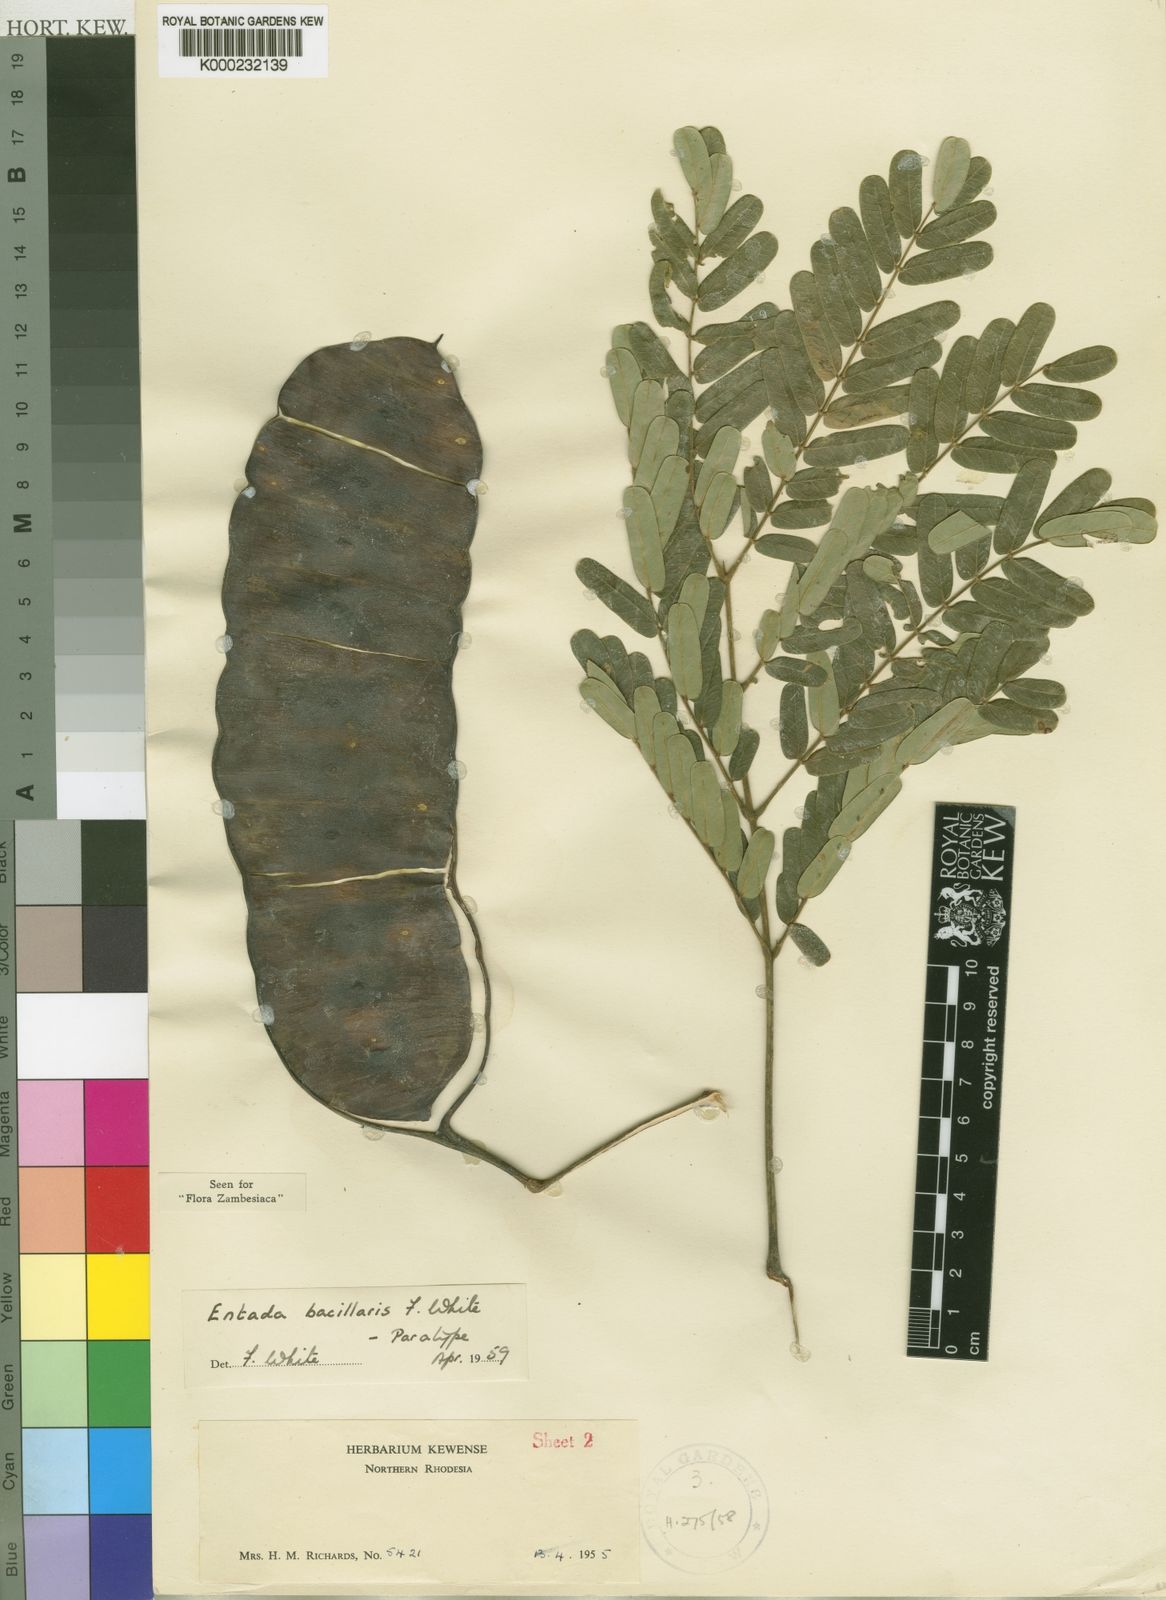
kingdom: Plantae
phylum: Tracheophyta
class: Magnoliopsida
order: Fabales
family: Fabaceae
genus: Entada
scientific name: Entada bacillaris
